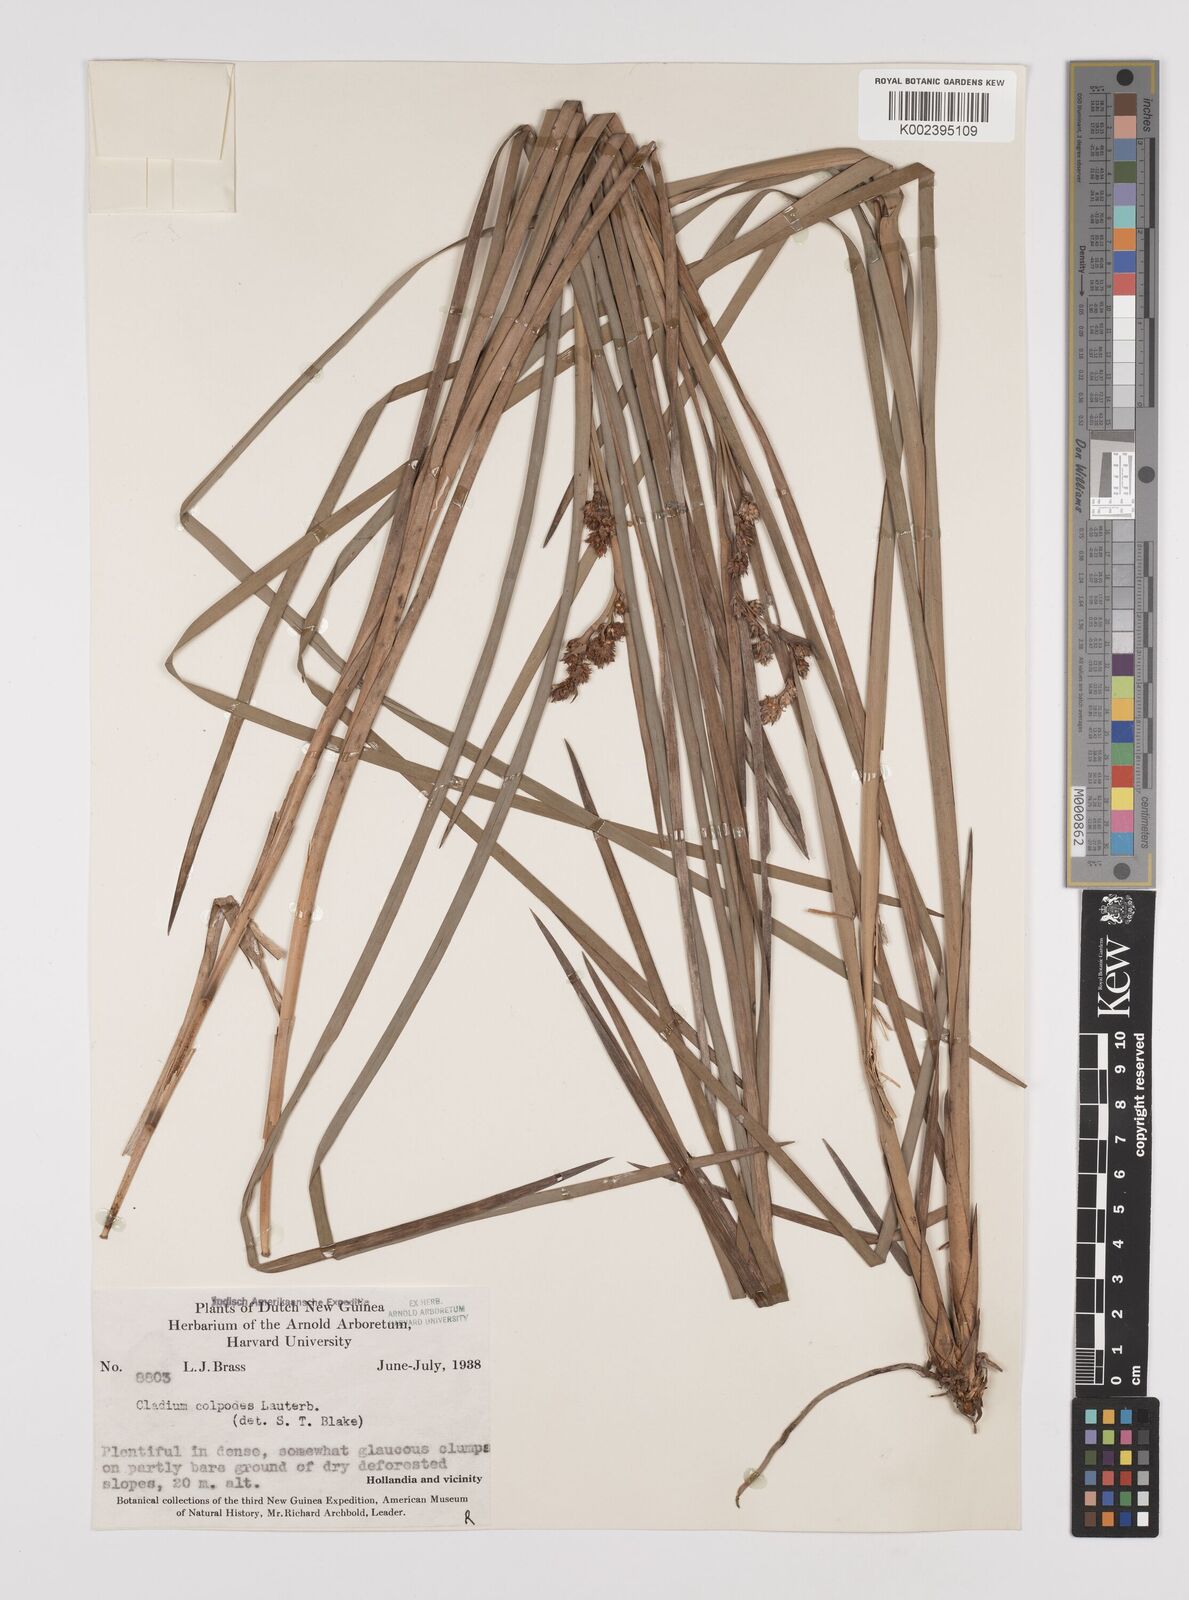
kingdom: Plantae
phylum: Tracheophyta
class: Liliopsida
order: Poales
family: Cyperaceae
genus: Machaerina
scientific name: Machaerina glomerata
